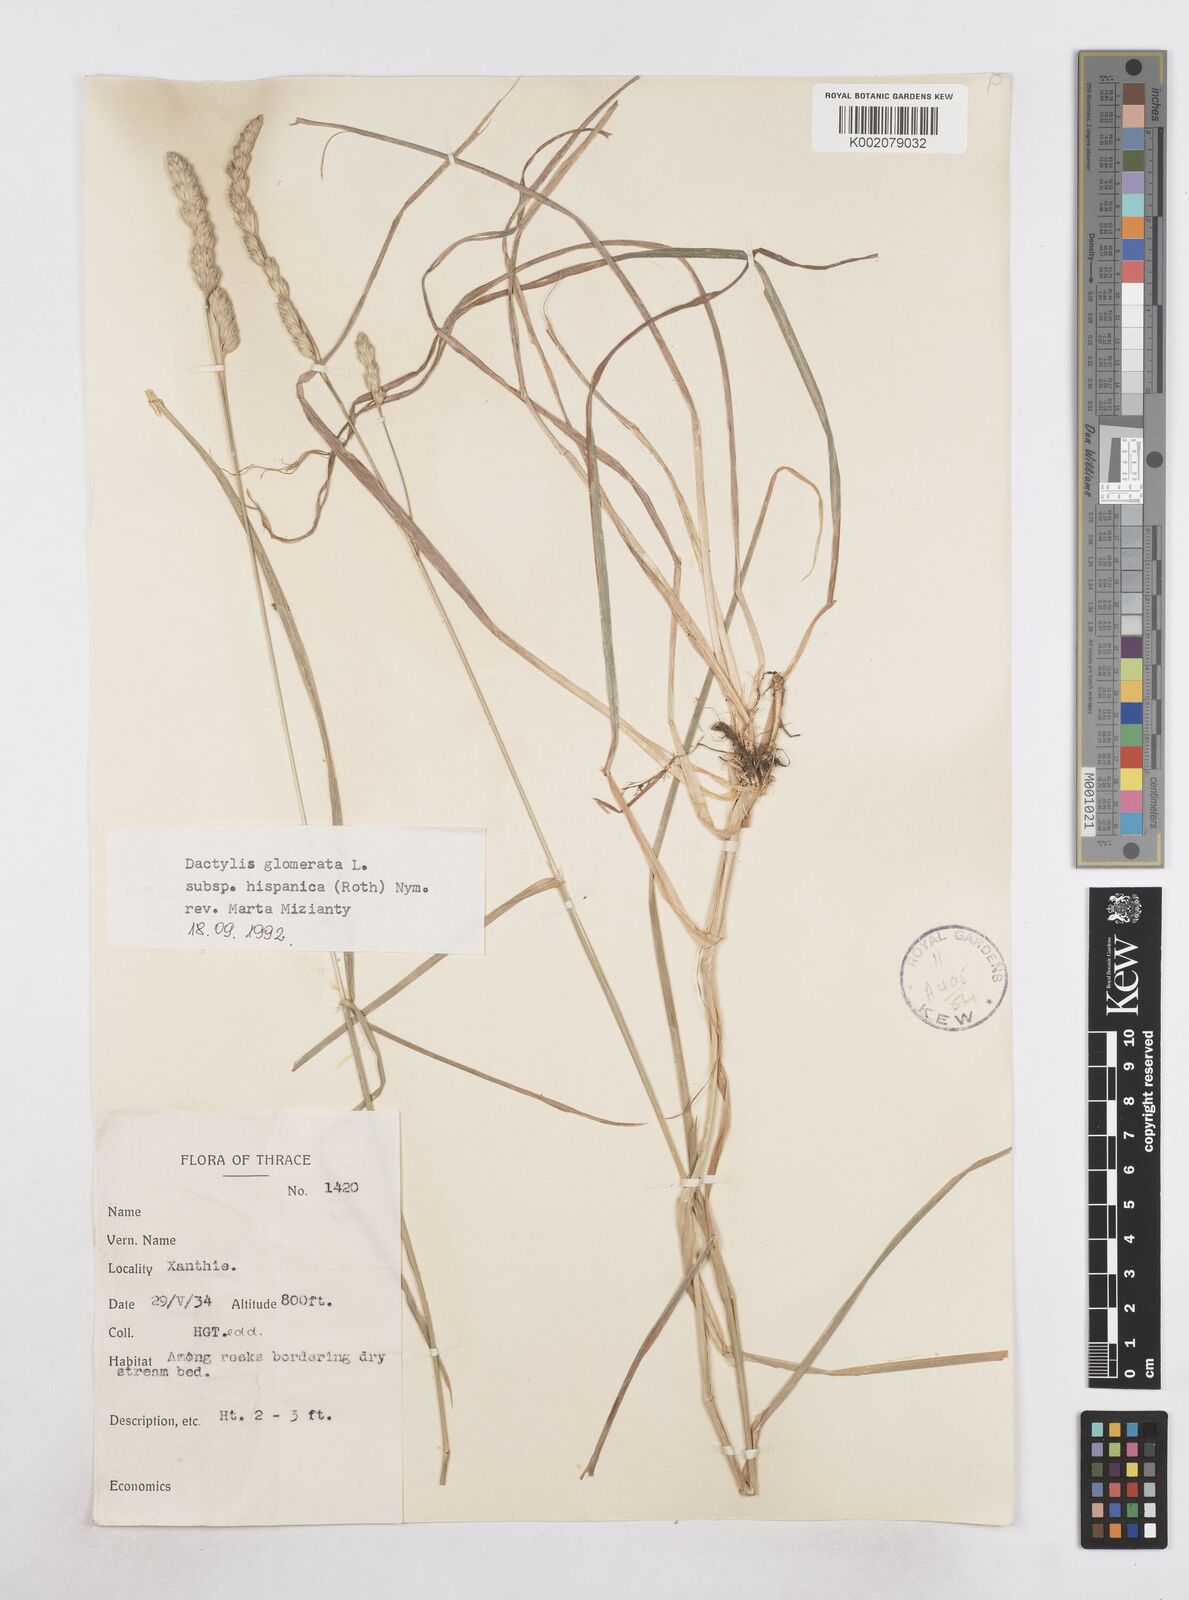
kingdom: Plantae
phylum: Tracheophyta
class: Liliopsida
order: Poales
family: Poaceae
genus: Dactylis
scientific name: Dactylis glomerata
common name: Orchardgrass
